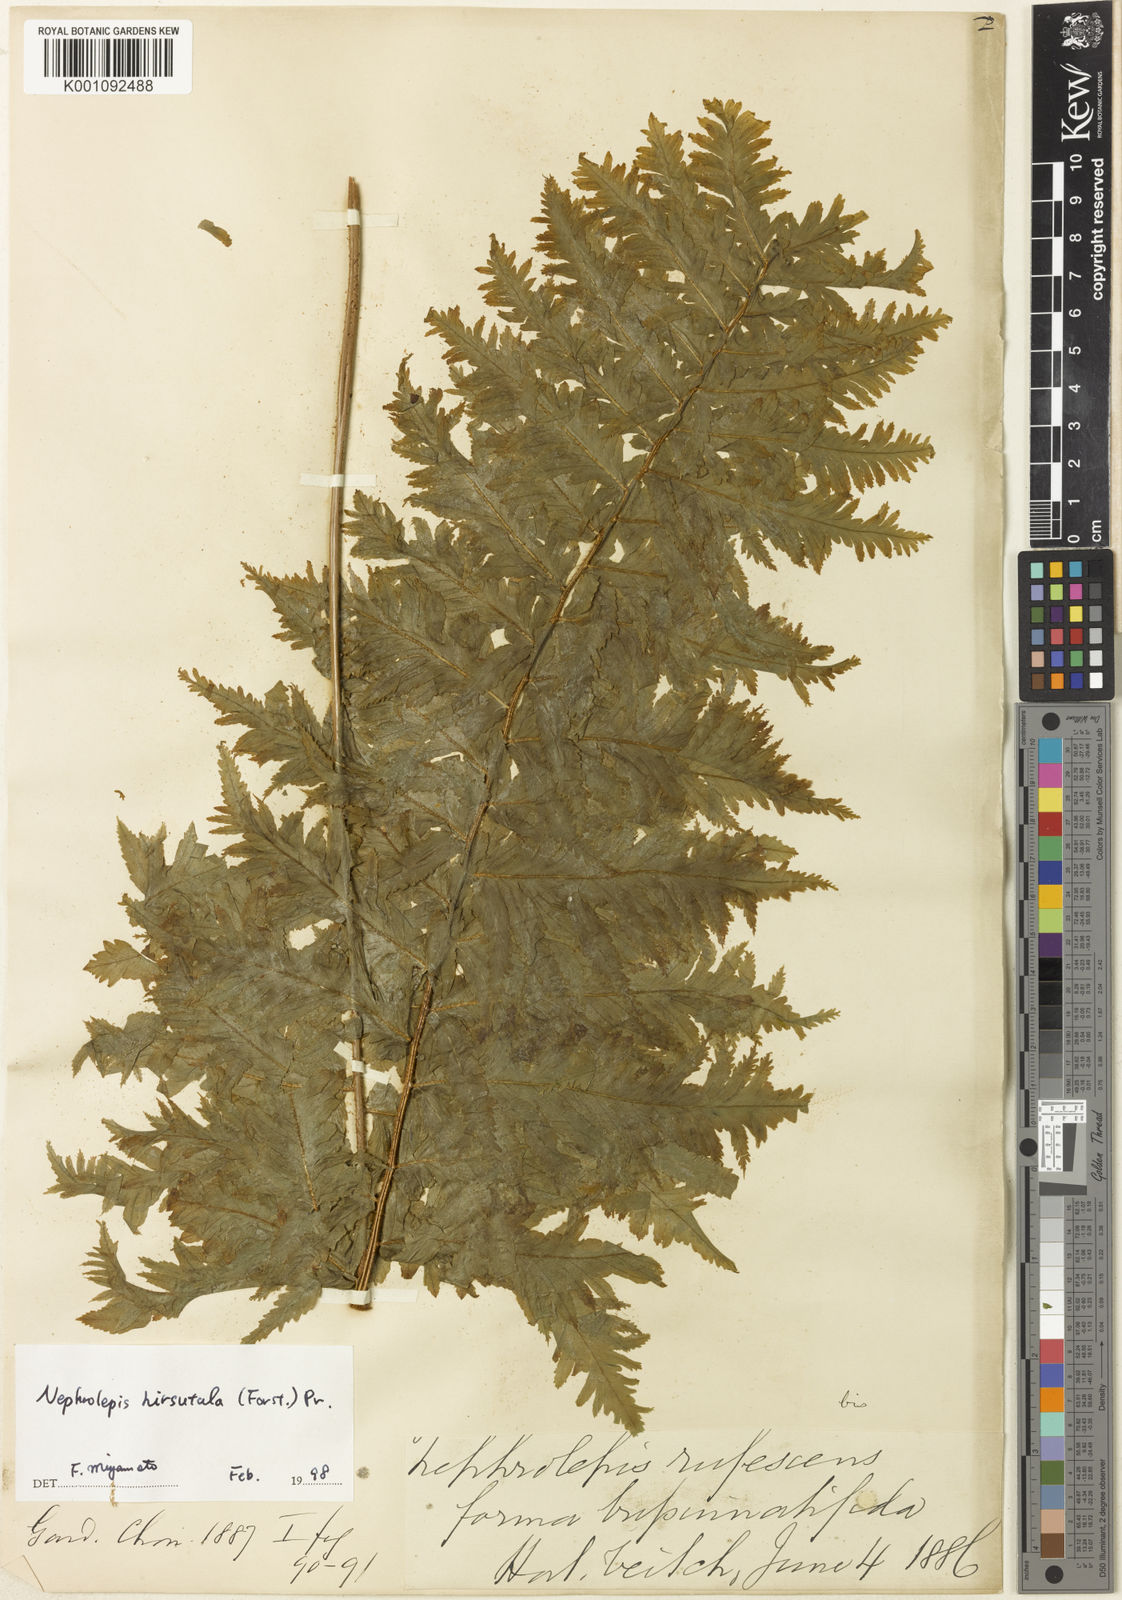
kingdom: Plantae
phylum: Tracheophyta
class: Polypodiopsida
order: Polypodiales
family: Nephrolepidaceae
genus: Nephrolepis
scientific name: Nephrolepis brownii
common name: Asian swordfern
